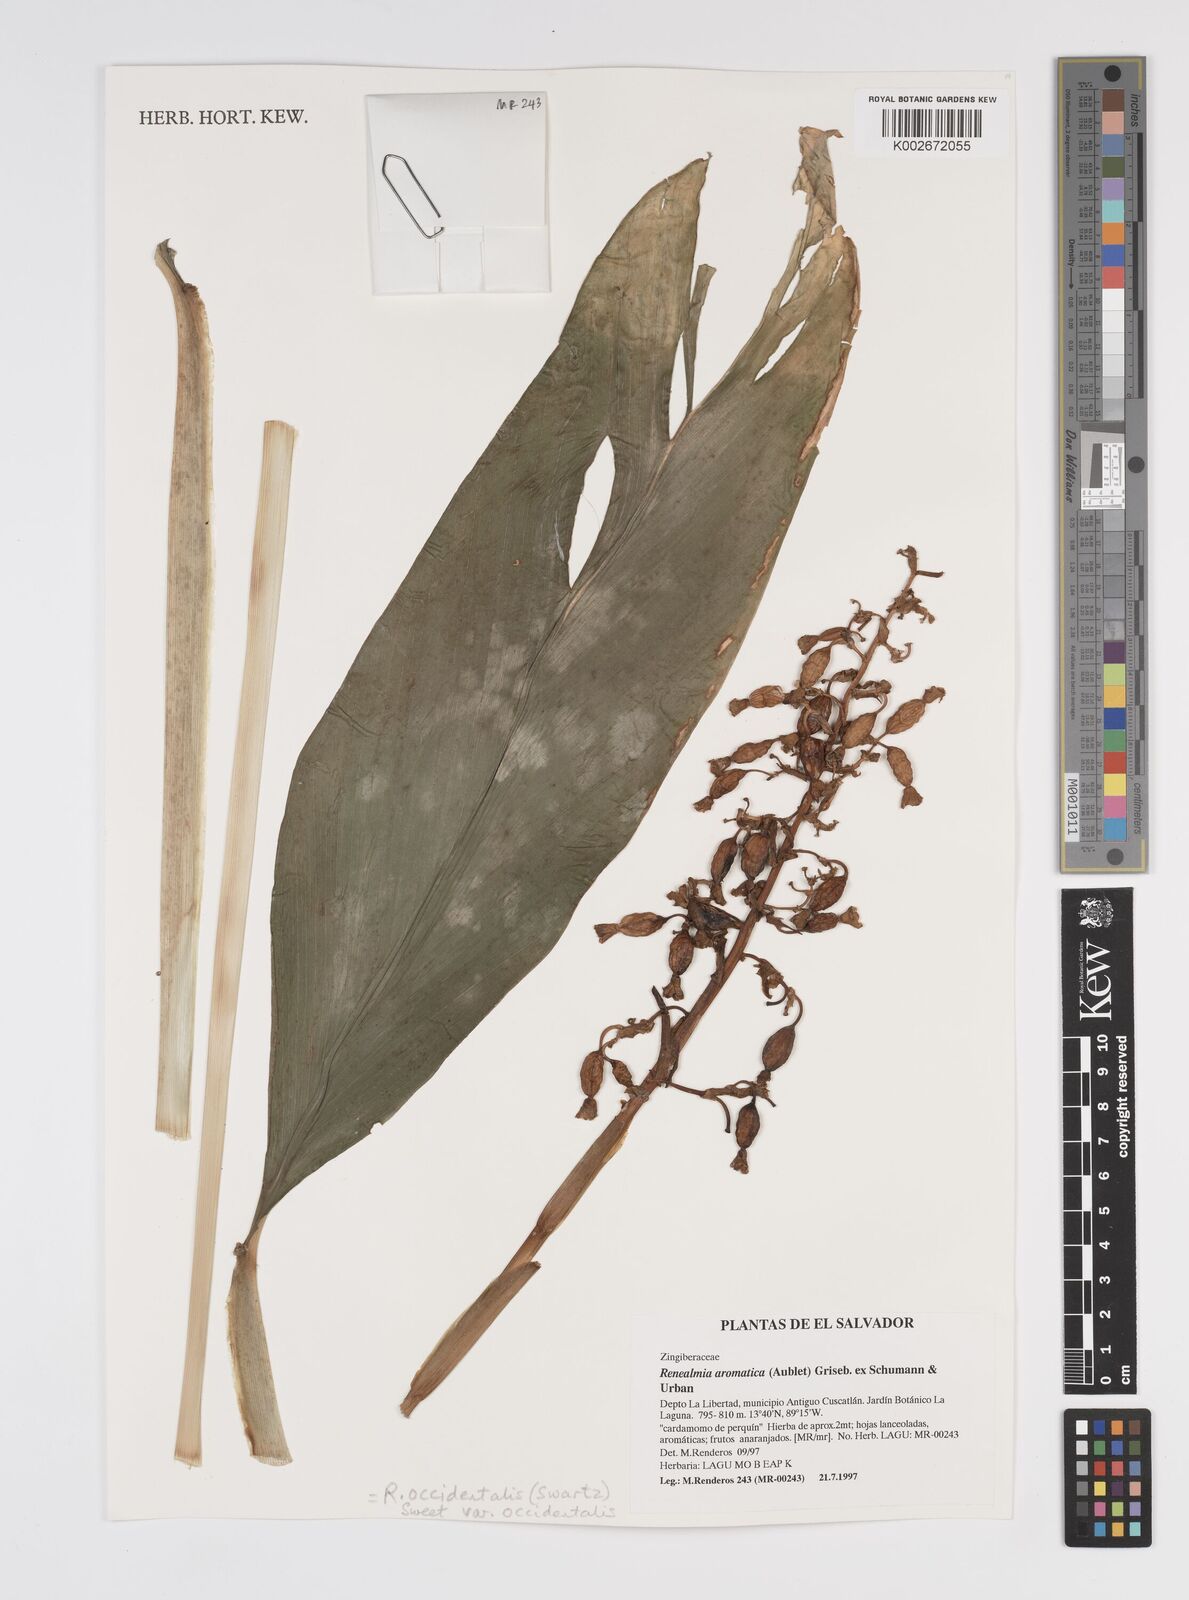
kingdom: Plantae
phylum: Tracheophyta
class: Liliopsida
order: Zingiberales
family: Zingiberaceae
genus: Renealmia
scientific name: Renealmia aromatica
